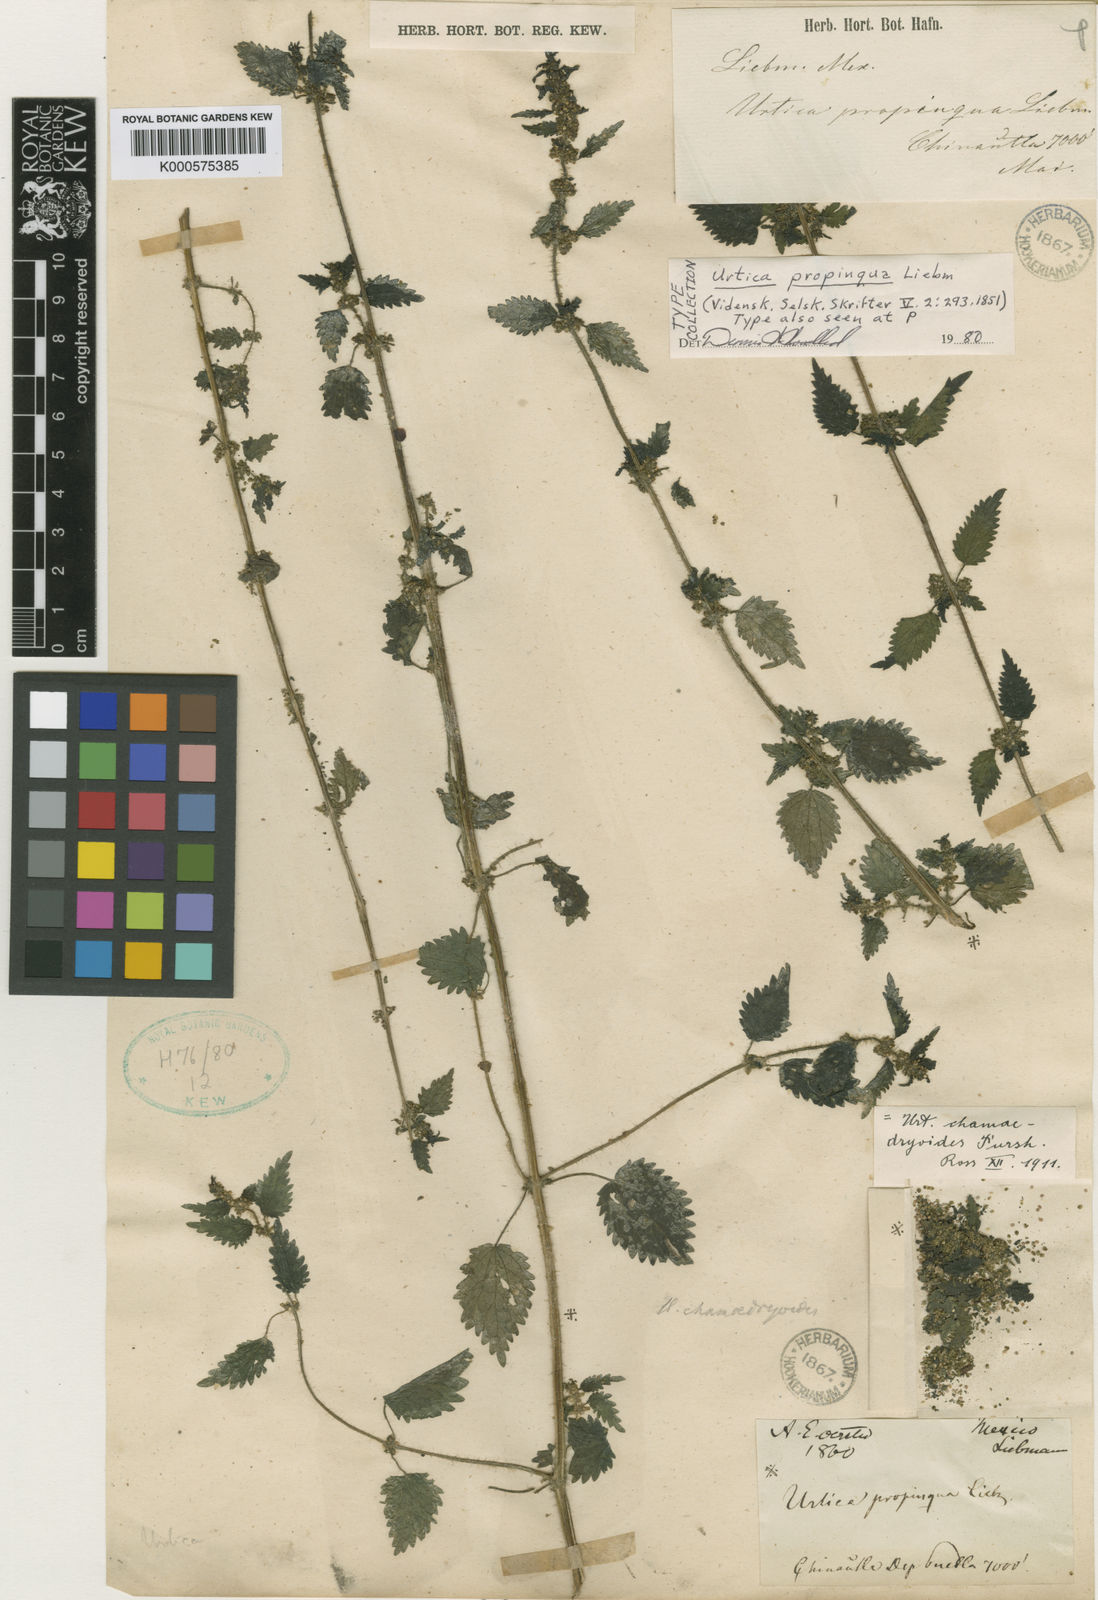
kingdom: Plantae
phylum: Tracheophyta
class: Magnoliopsida
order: Rosales
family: Urticaceae
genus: Urtica
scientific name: Urtica chamaedryoides
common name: Heart-leaf nettle
